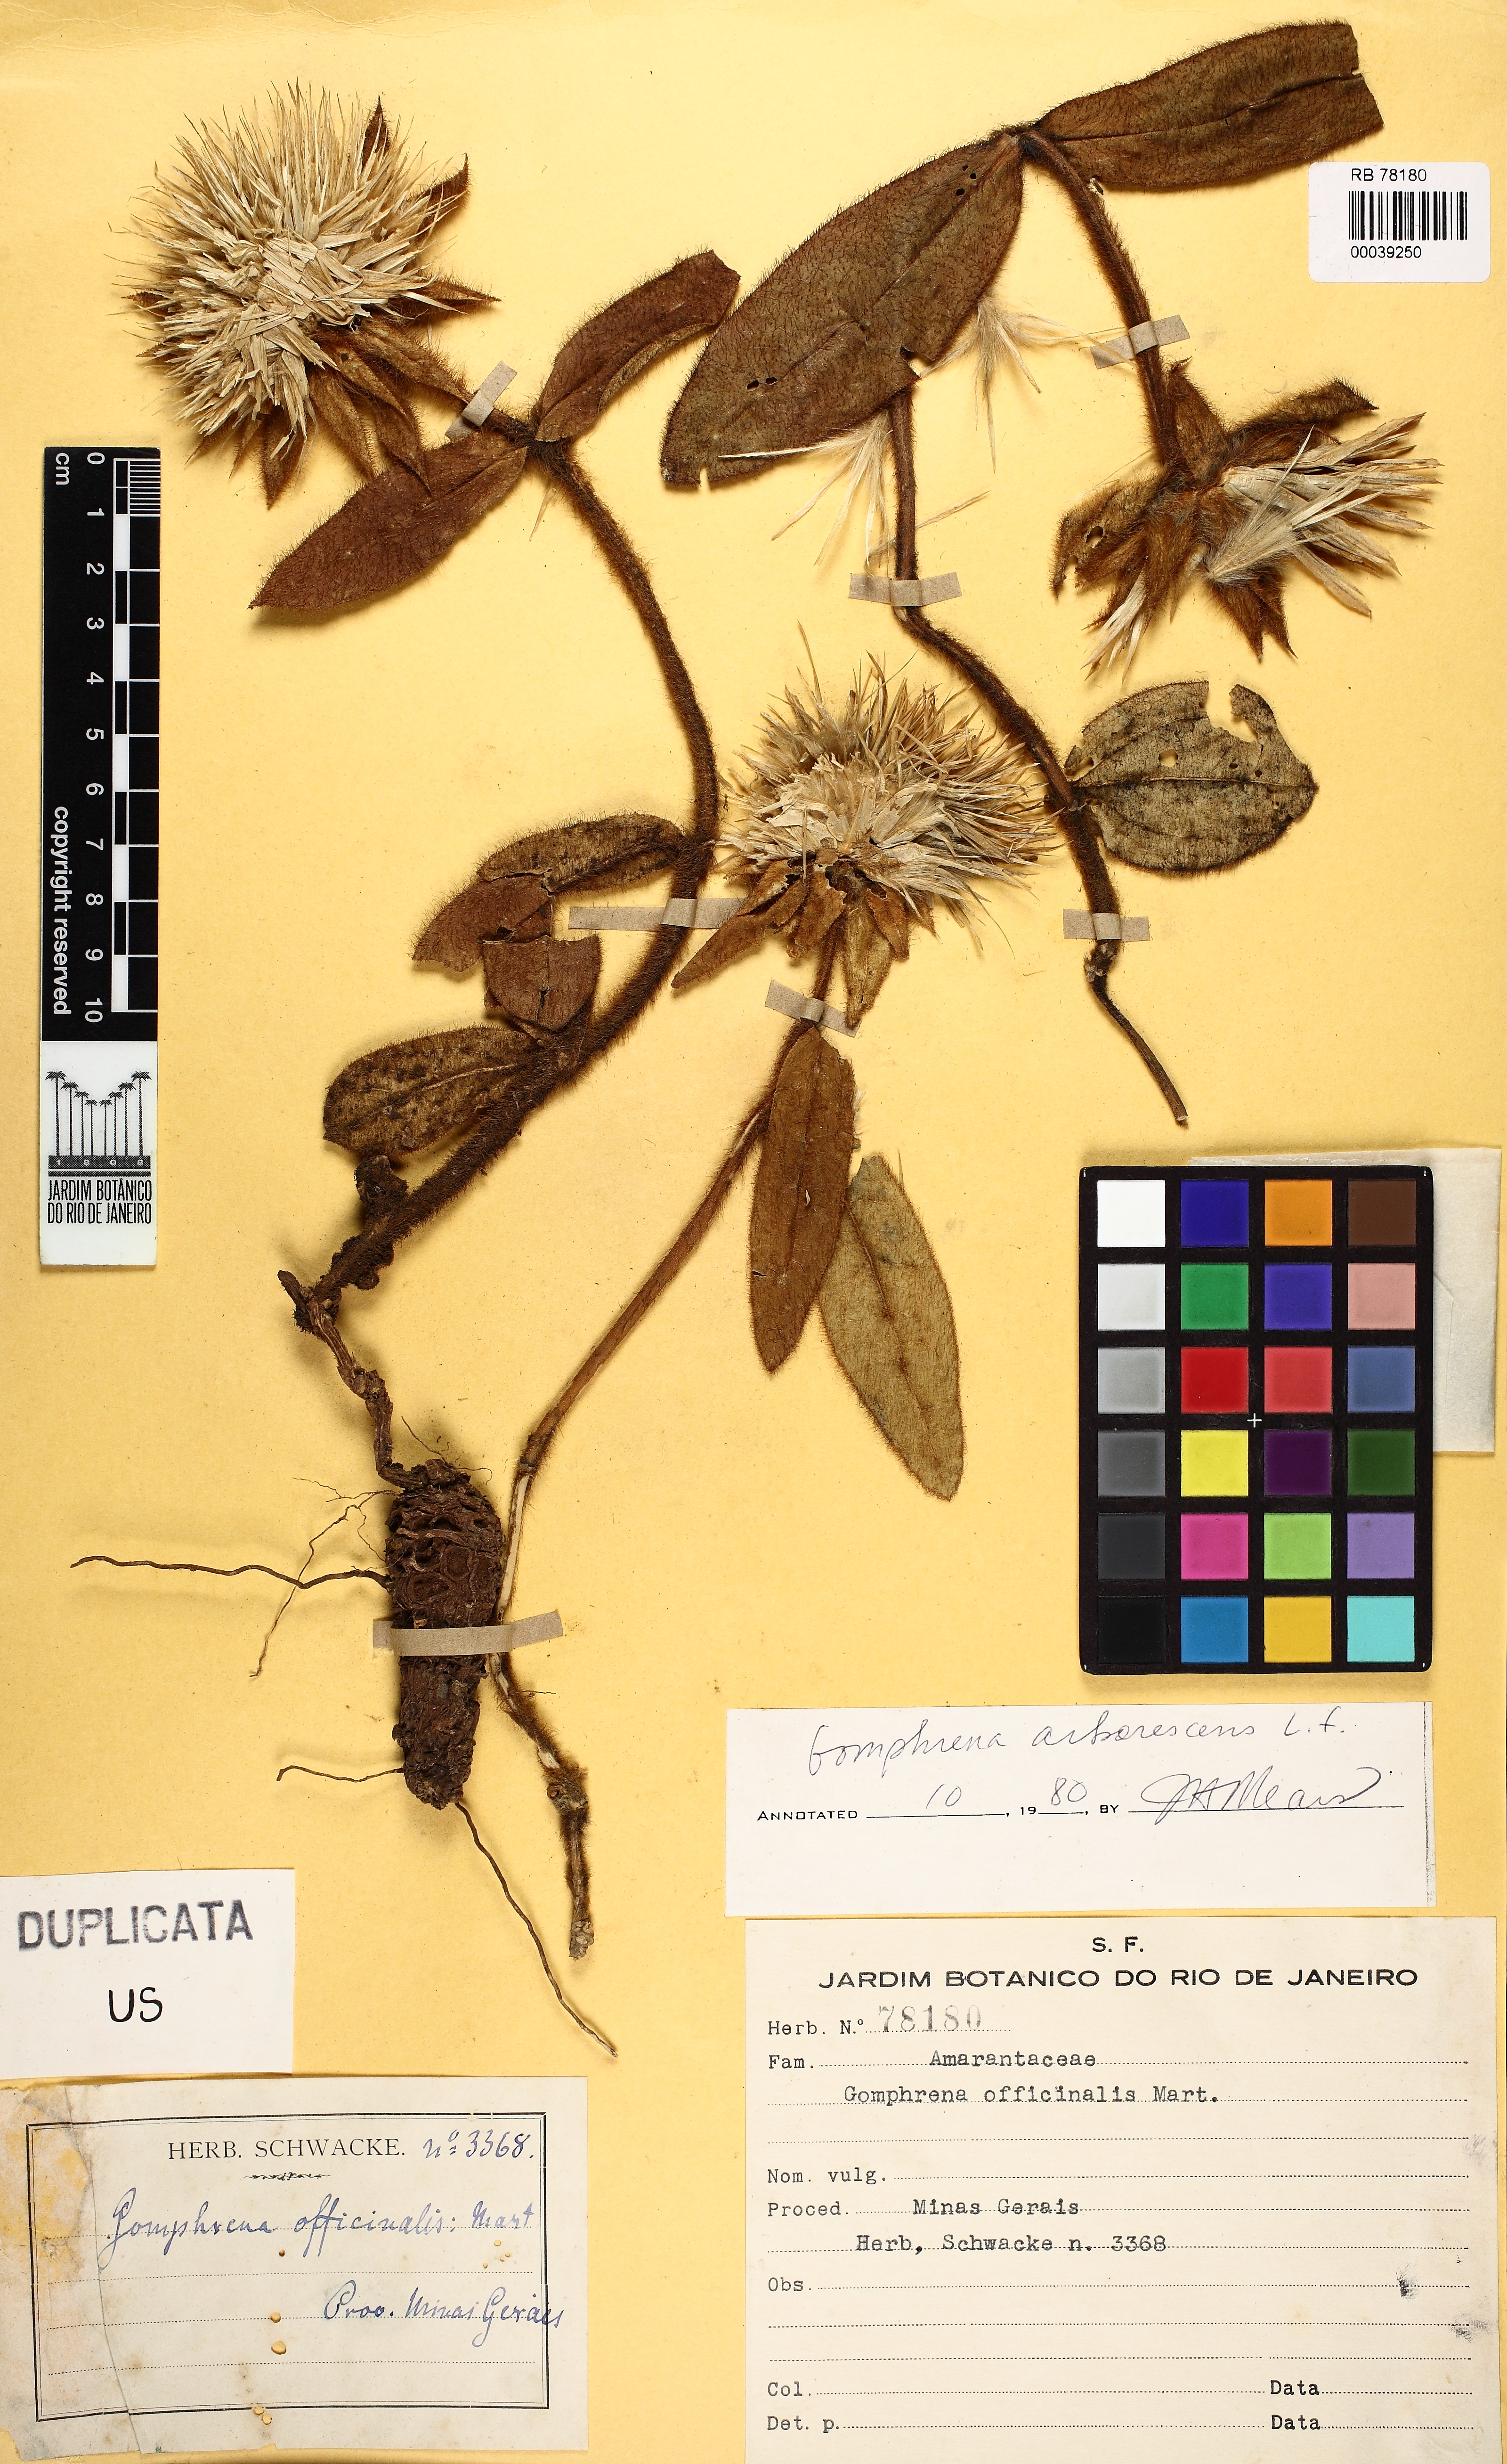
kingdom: Plantae
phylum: Tracheophyta
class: Magnoliopsida
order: Caryophyllales
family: Amaranthaceae
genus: Gomphrena
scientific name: Gomphrena arborescens
